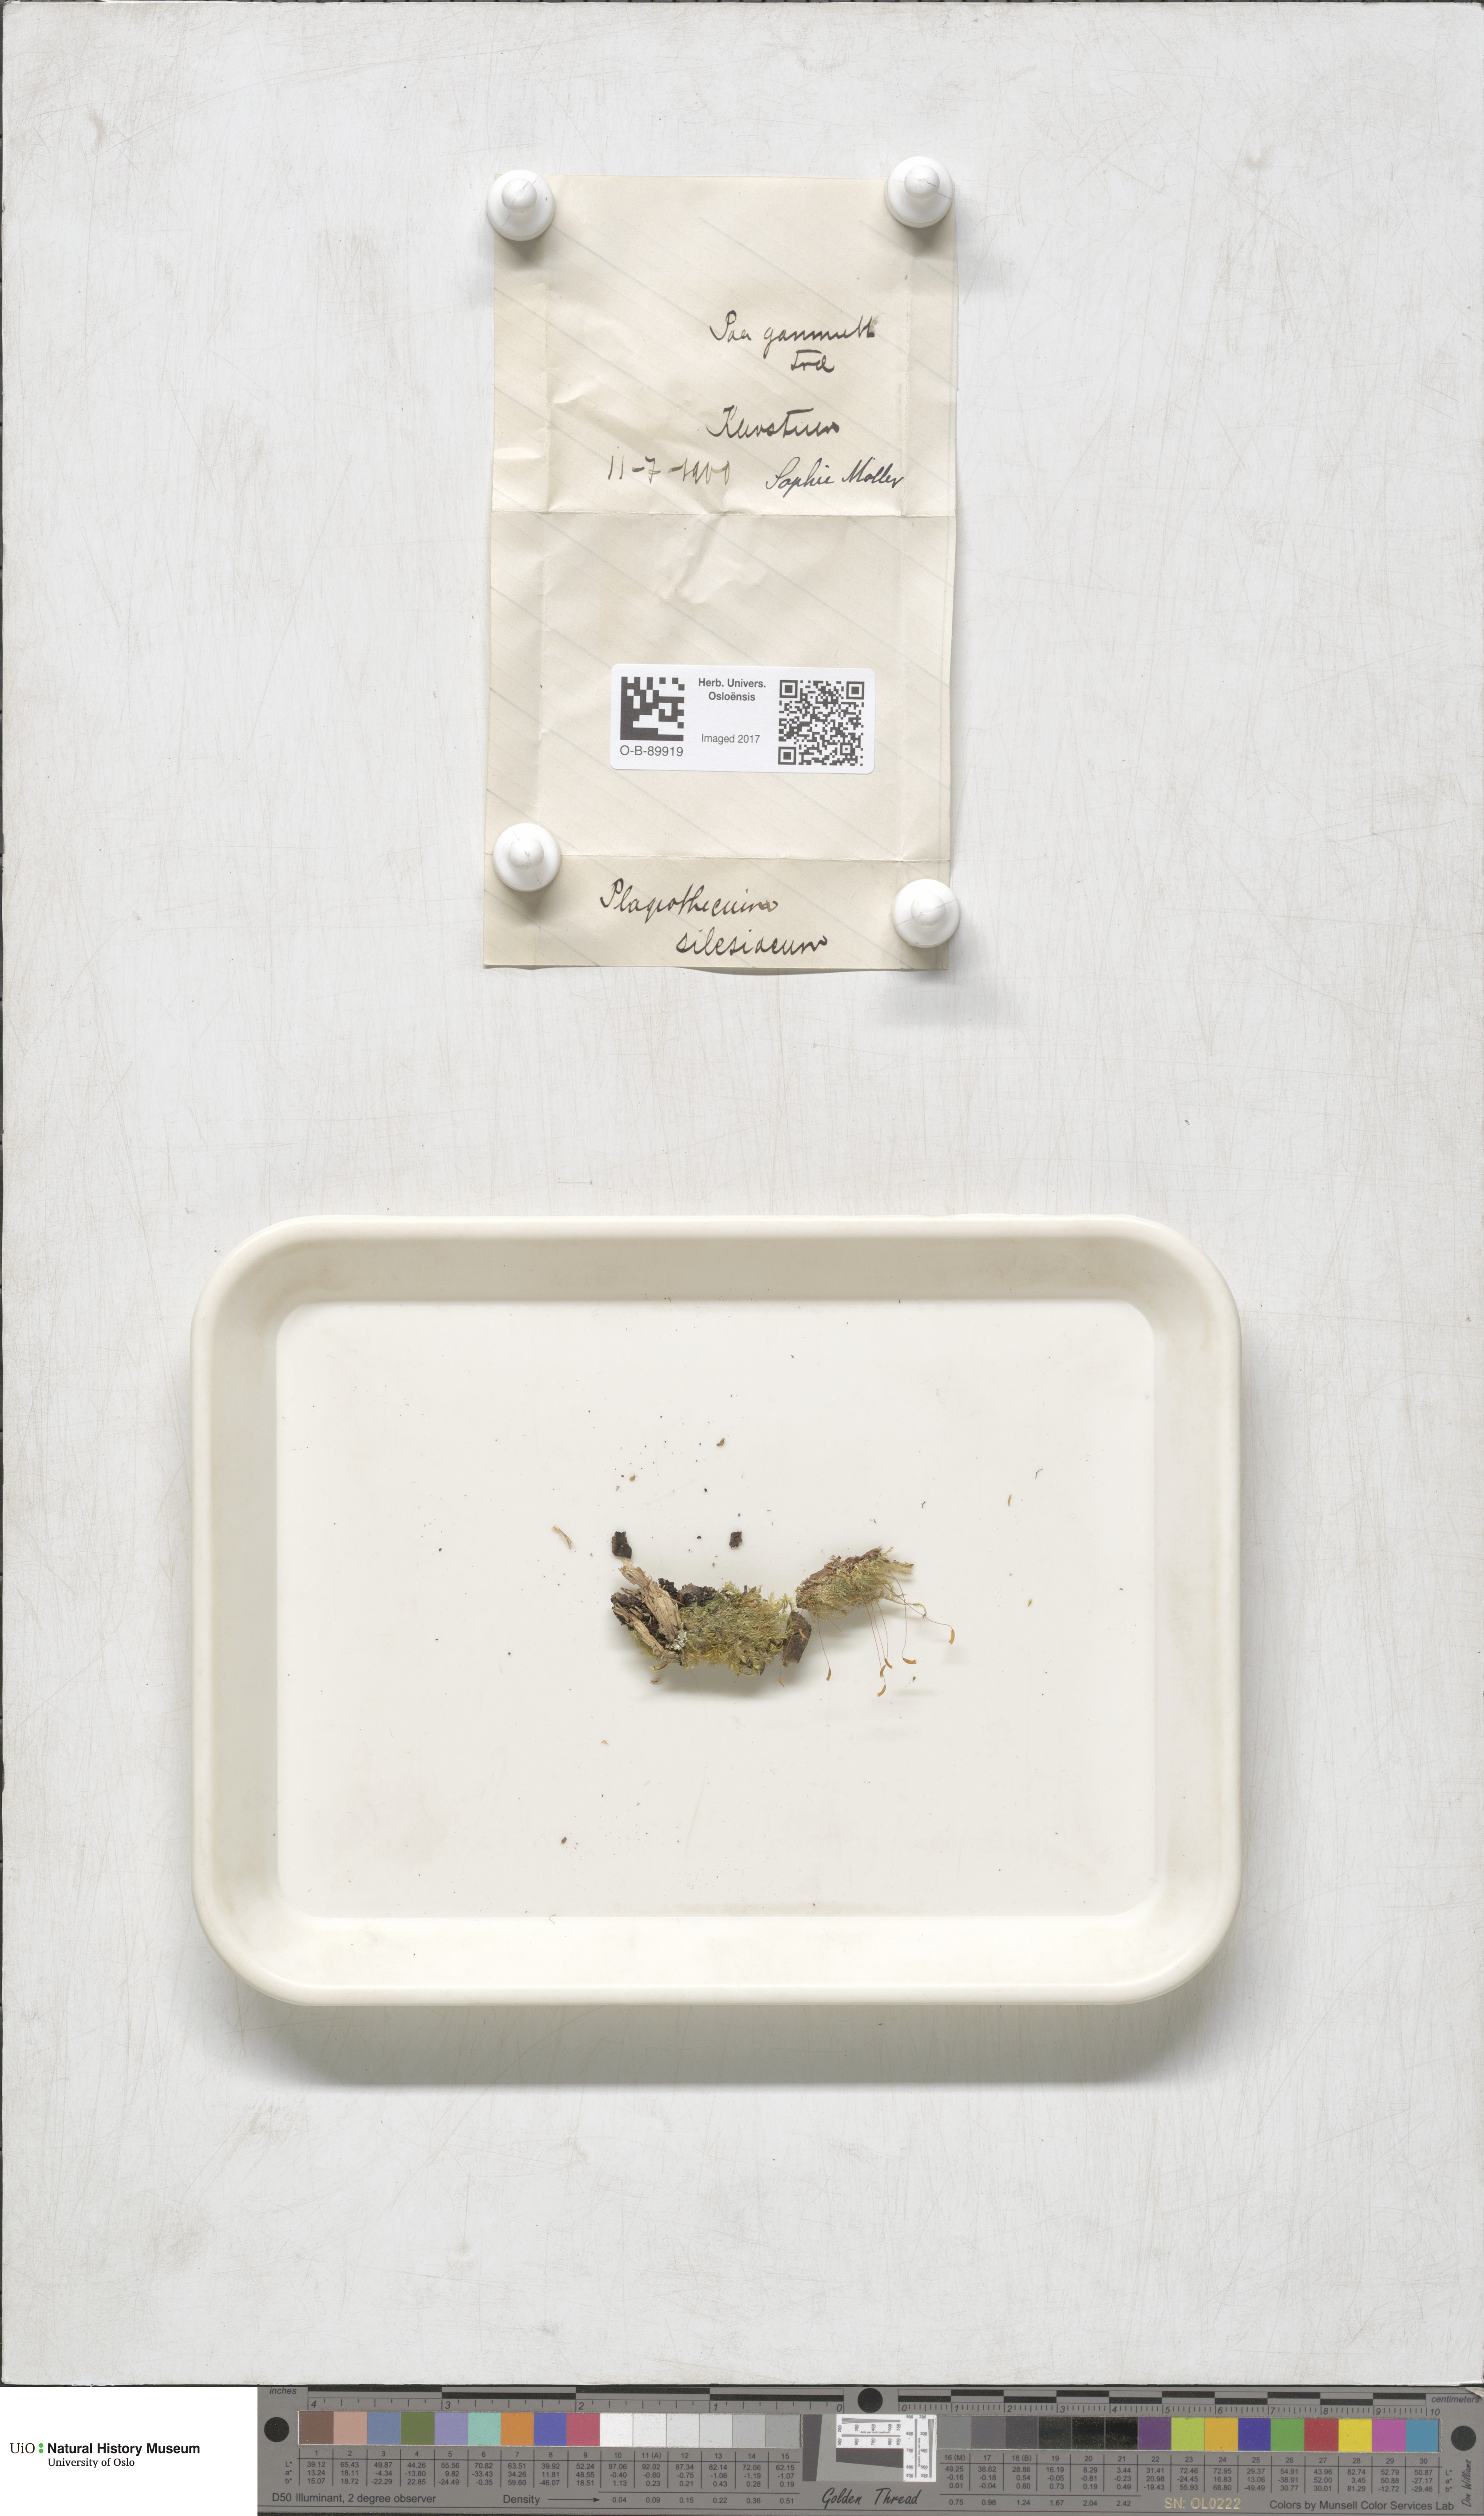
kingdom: Plantae
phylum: Bryophyta
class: Bryopsida
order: Hypnales
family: Plagiotheciaceae
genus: Herzogiella
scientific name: Herzogiella seligeri
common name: Silesian feather-moss
